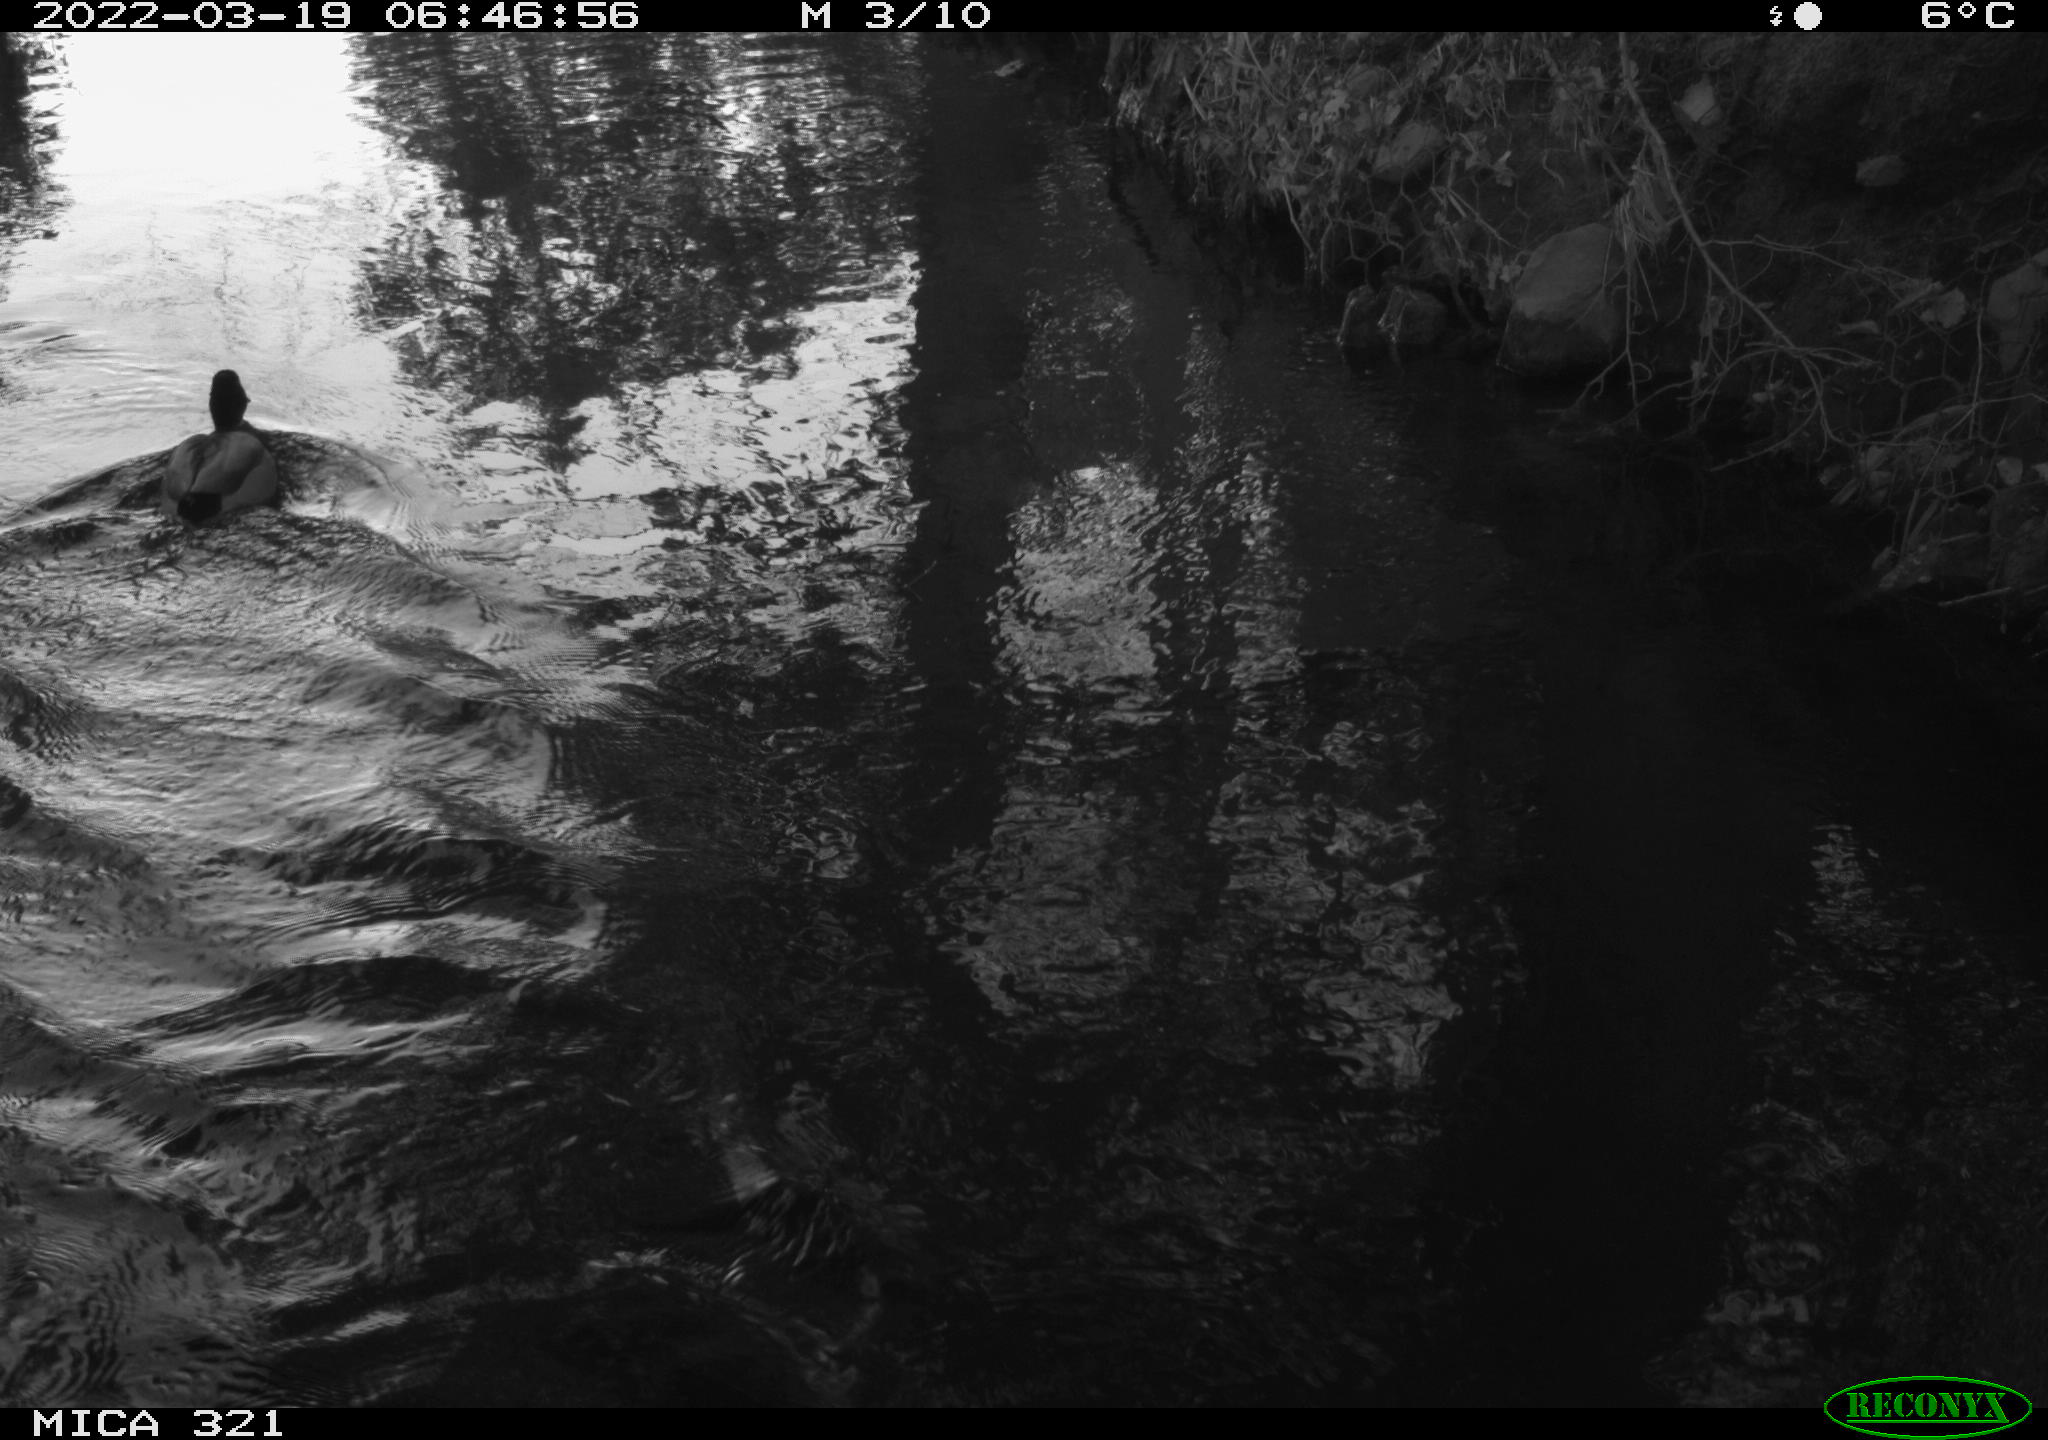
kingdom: Animalia
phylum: Chordata
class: Aves
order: Anseriformes
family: Anatidae
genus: Anas
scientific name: Anas platyrhynchos
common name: Mallard
